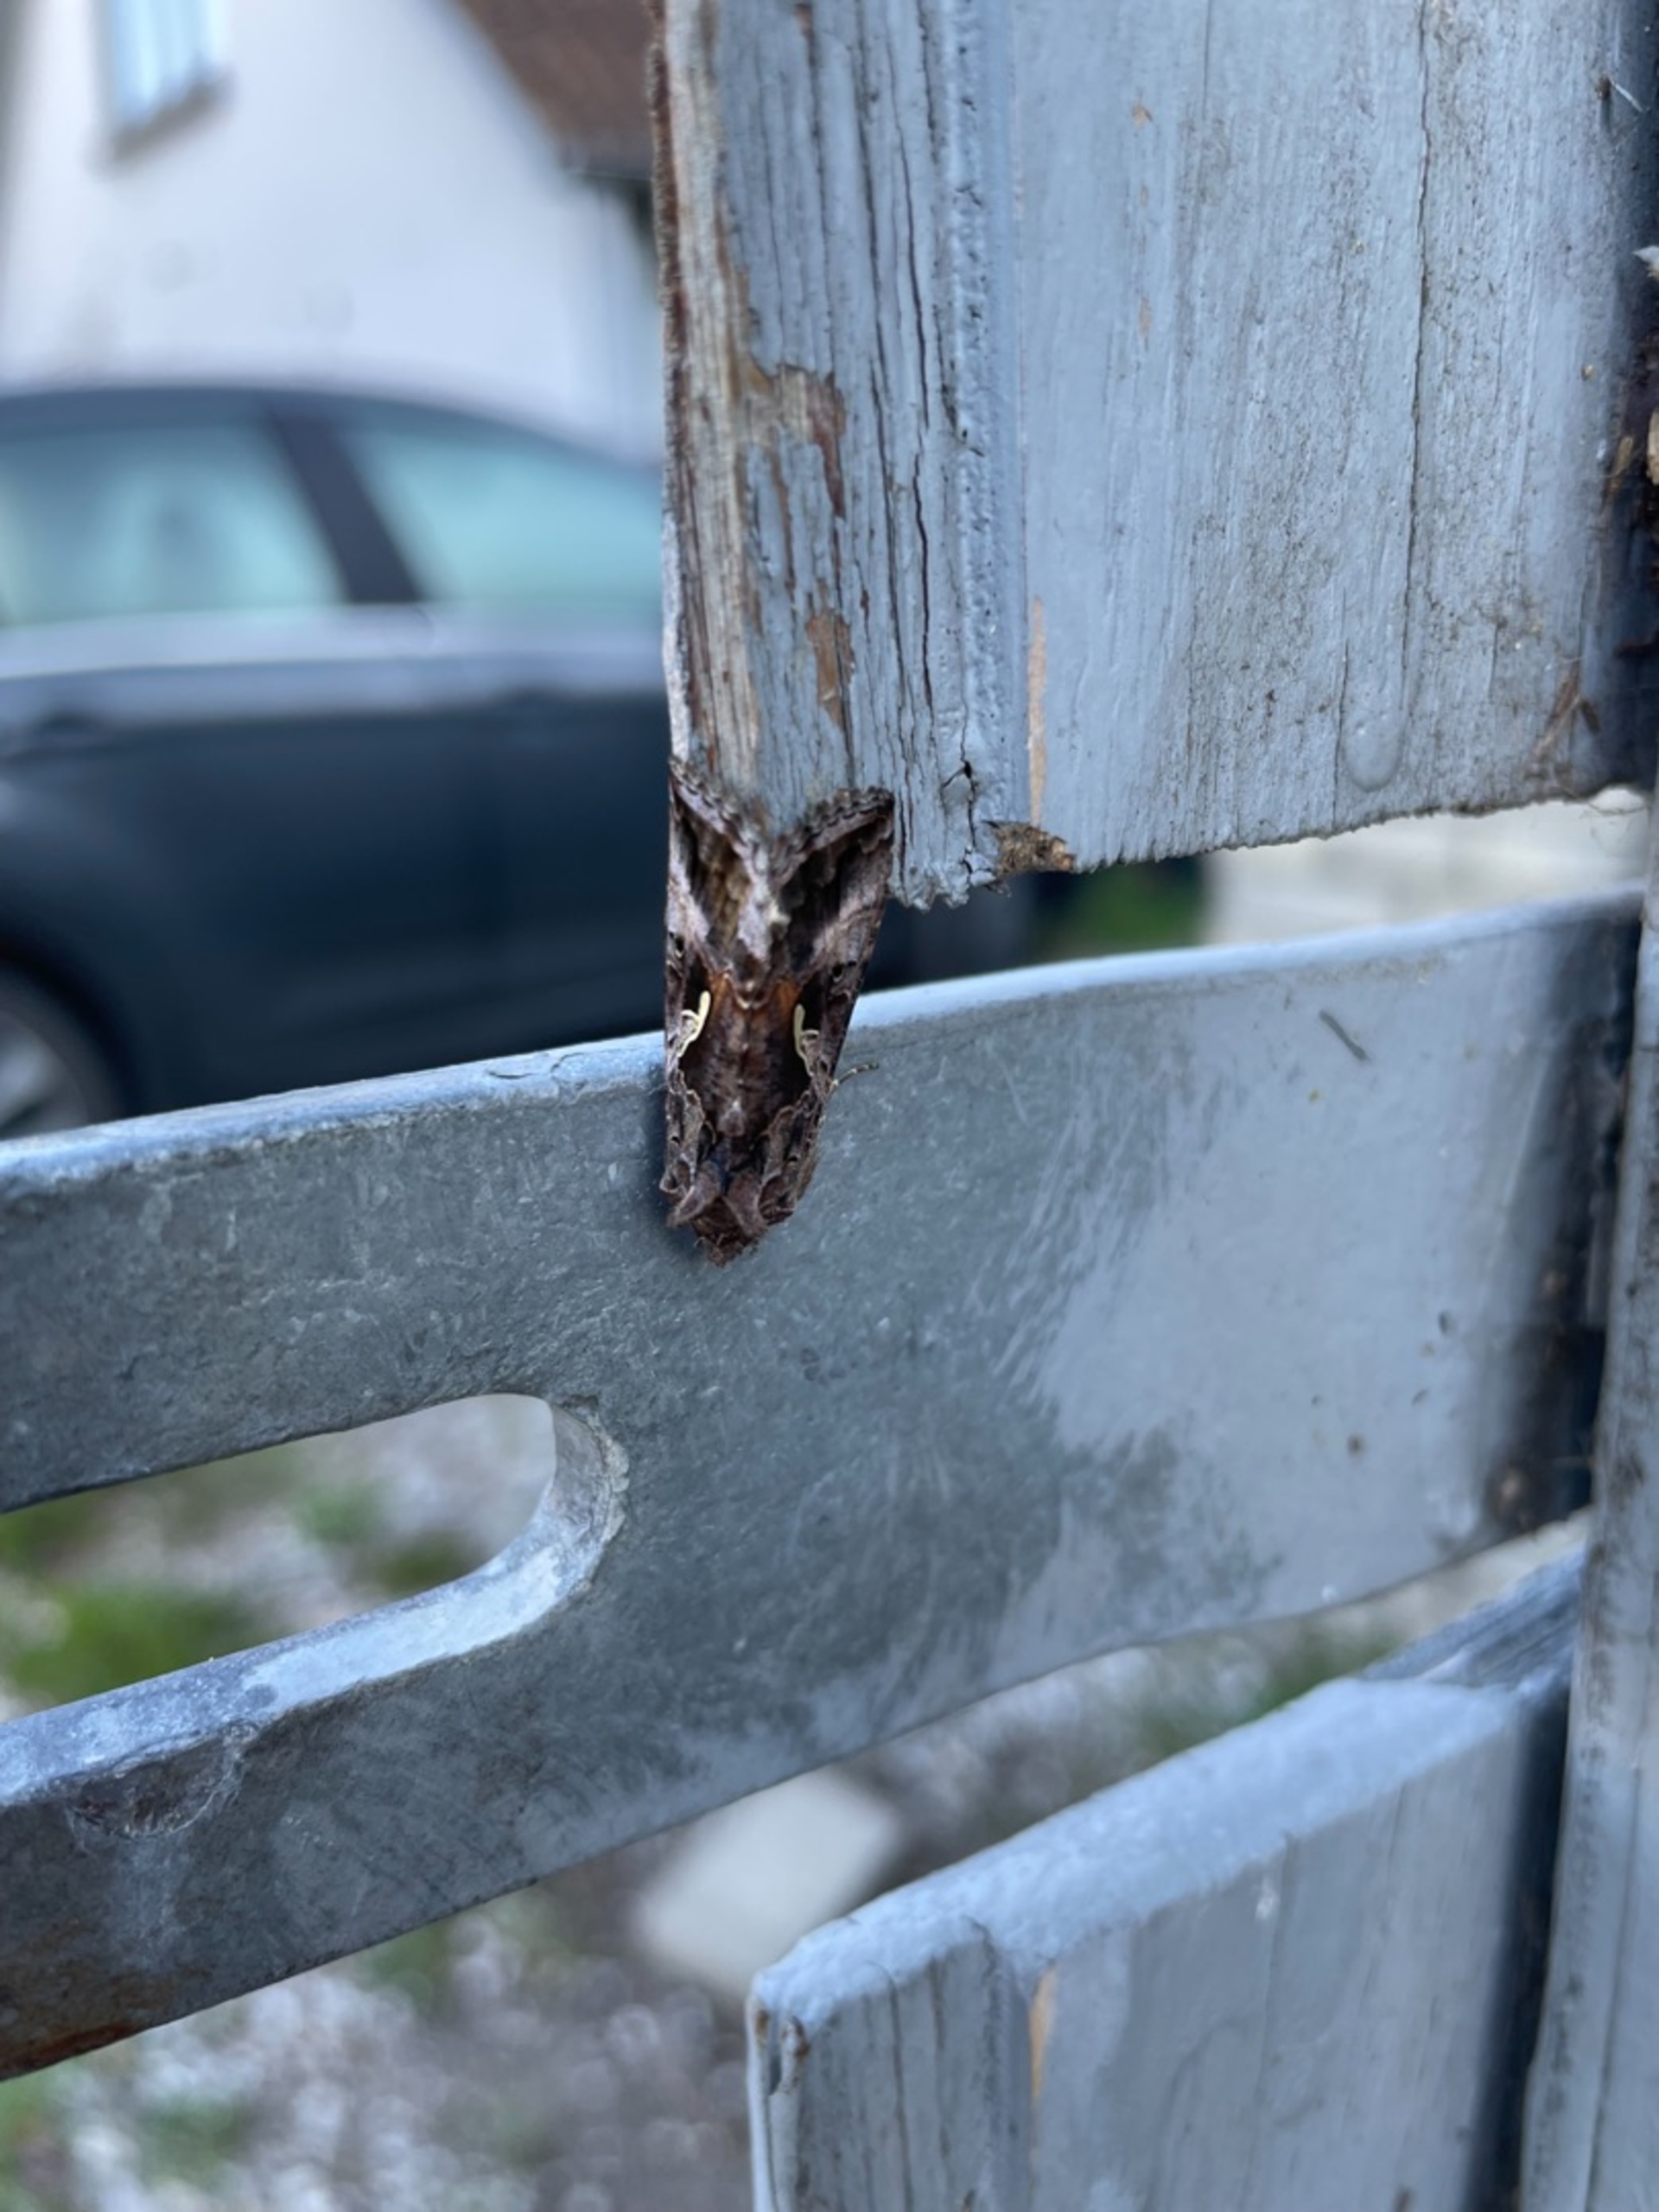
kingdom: Animalia
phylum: Arthropoda
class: Insecta
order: Lepidoptera
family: Noctuidae
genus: Autographa
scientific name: Autographa gamma
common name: Gammaugle
